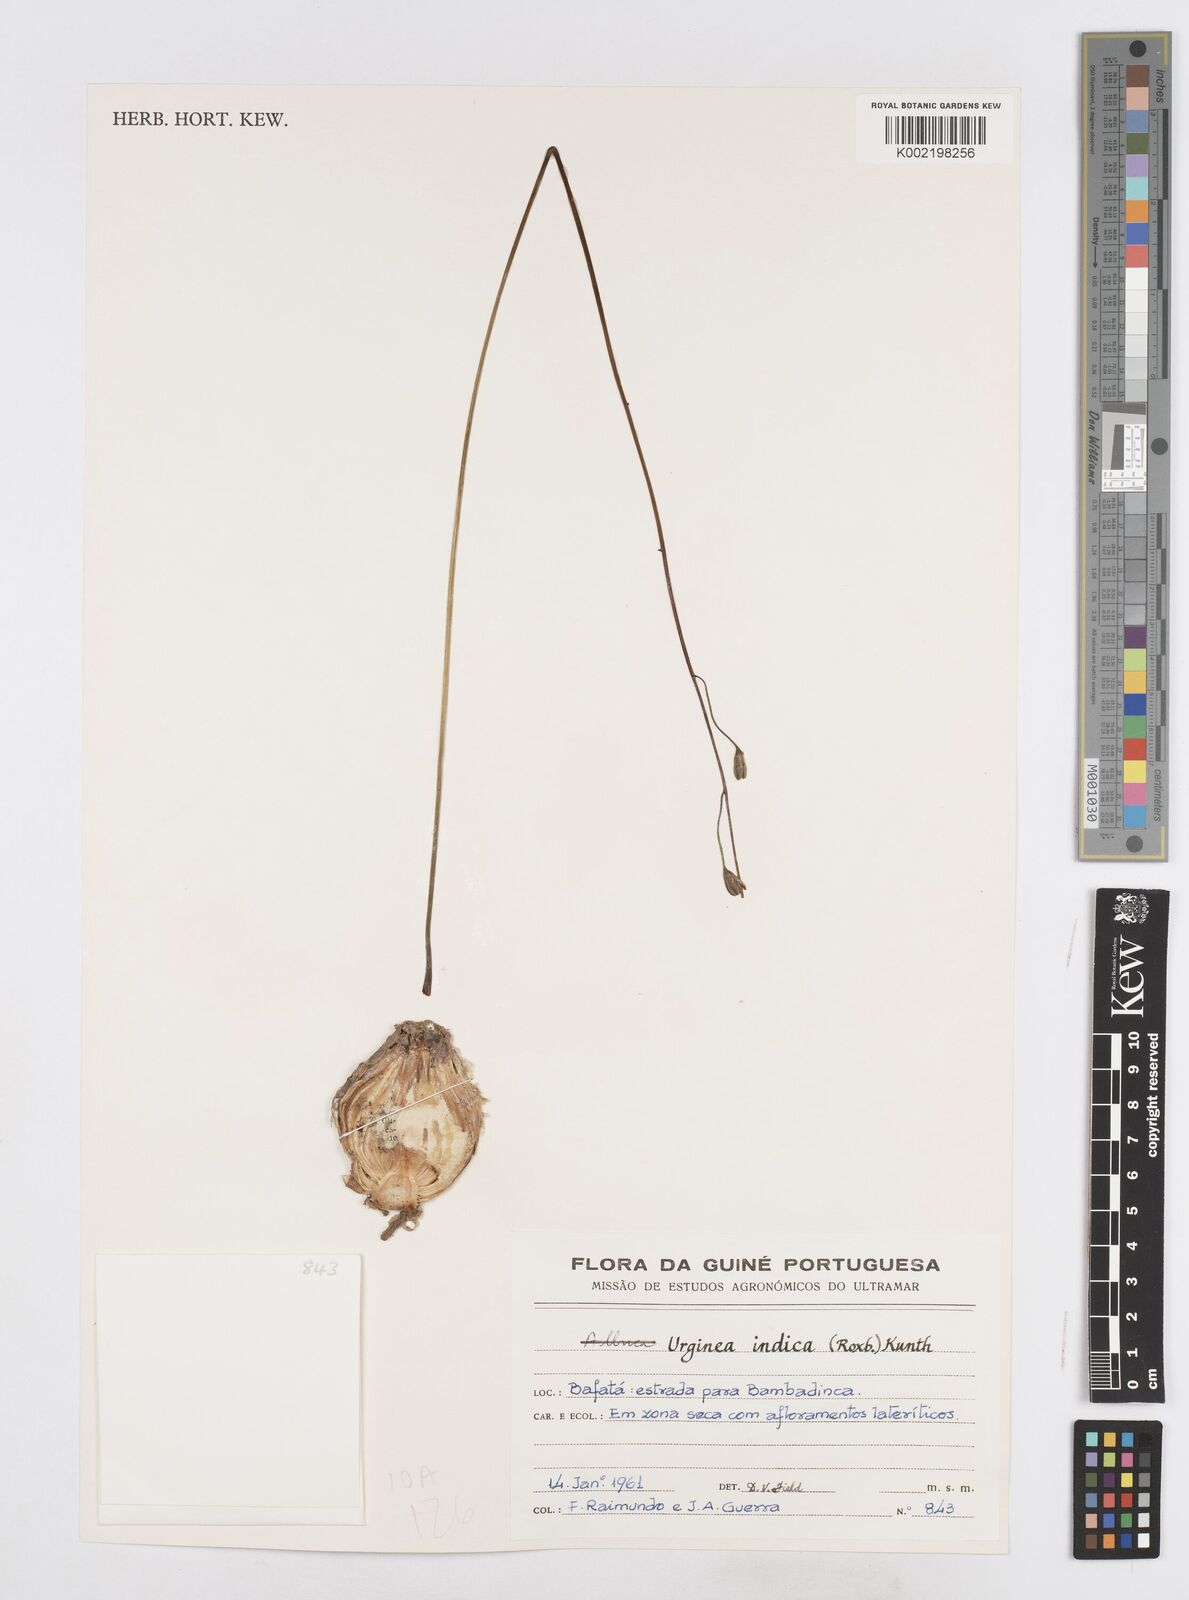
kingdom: Plantae
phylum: Tracheophyta
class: Liliopsida
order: Asparagales
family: Asparagaceae
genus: Drimia
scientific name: Drimia indica
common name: Indian-squill
